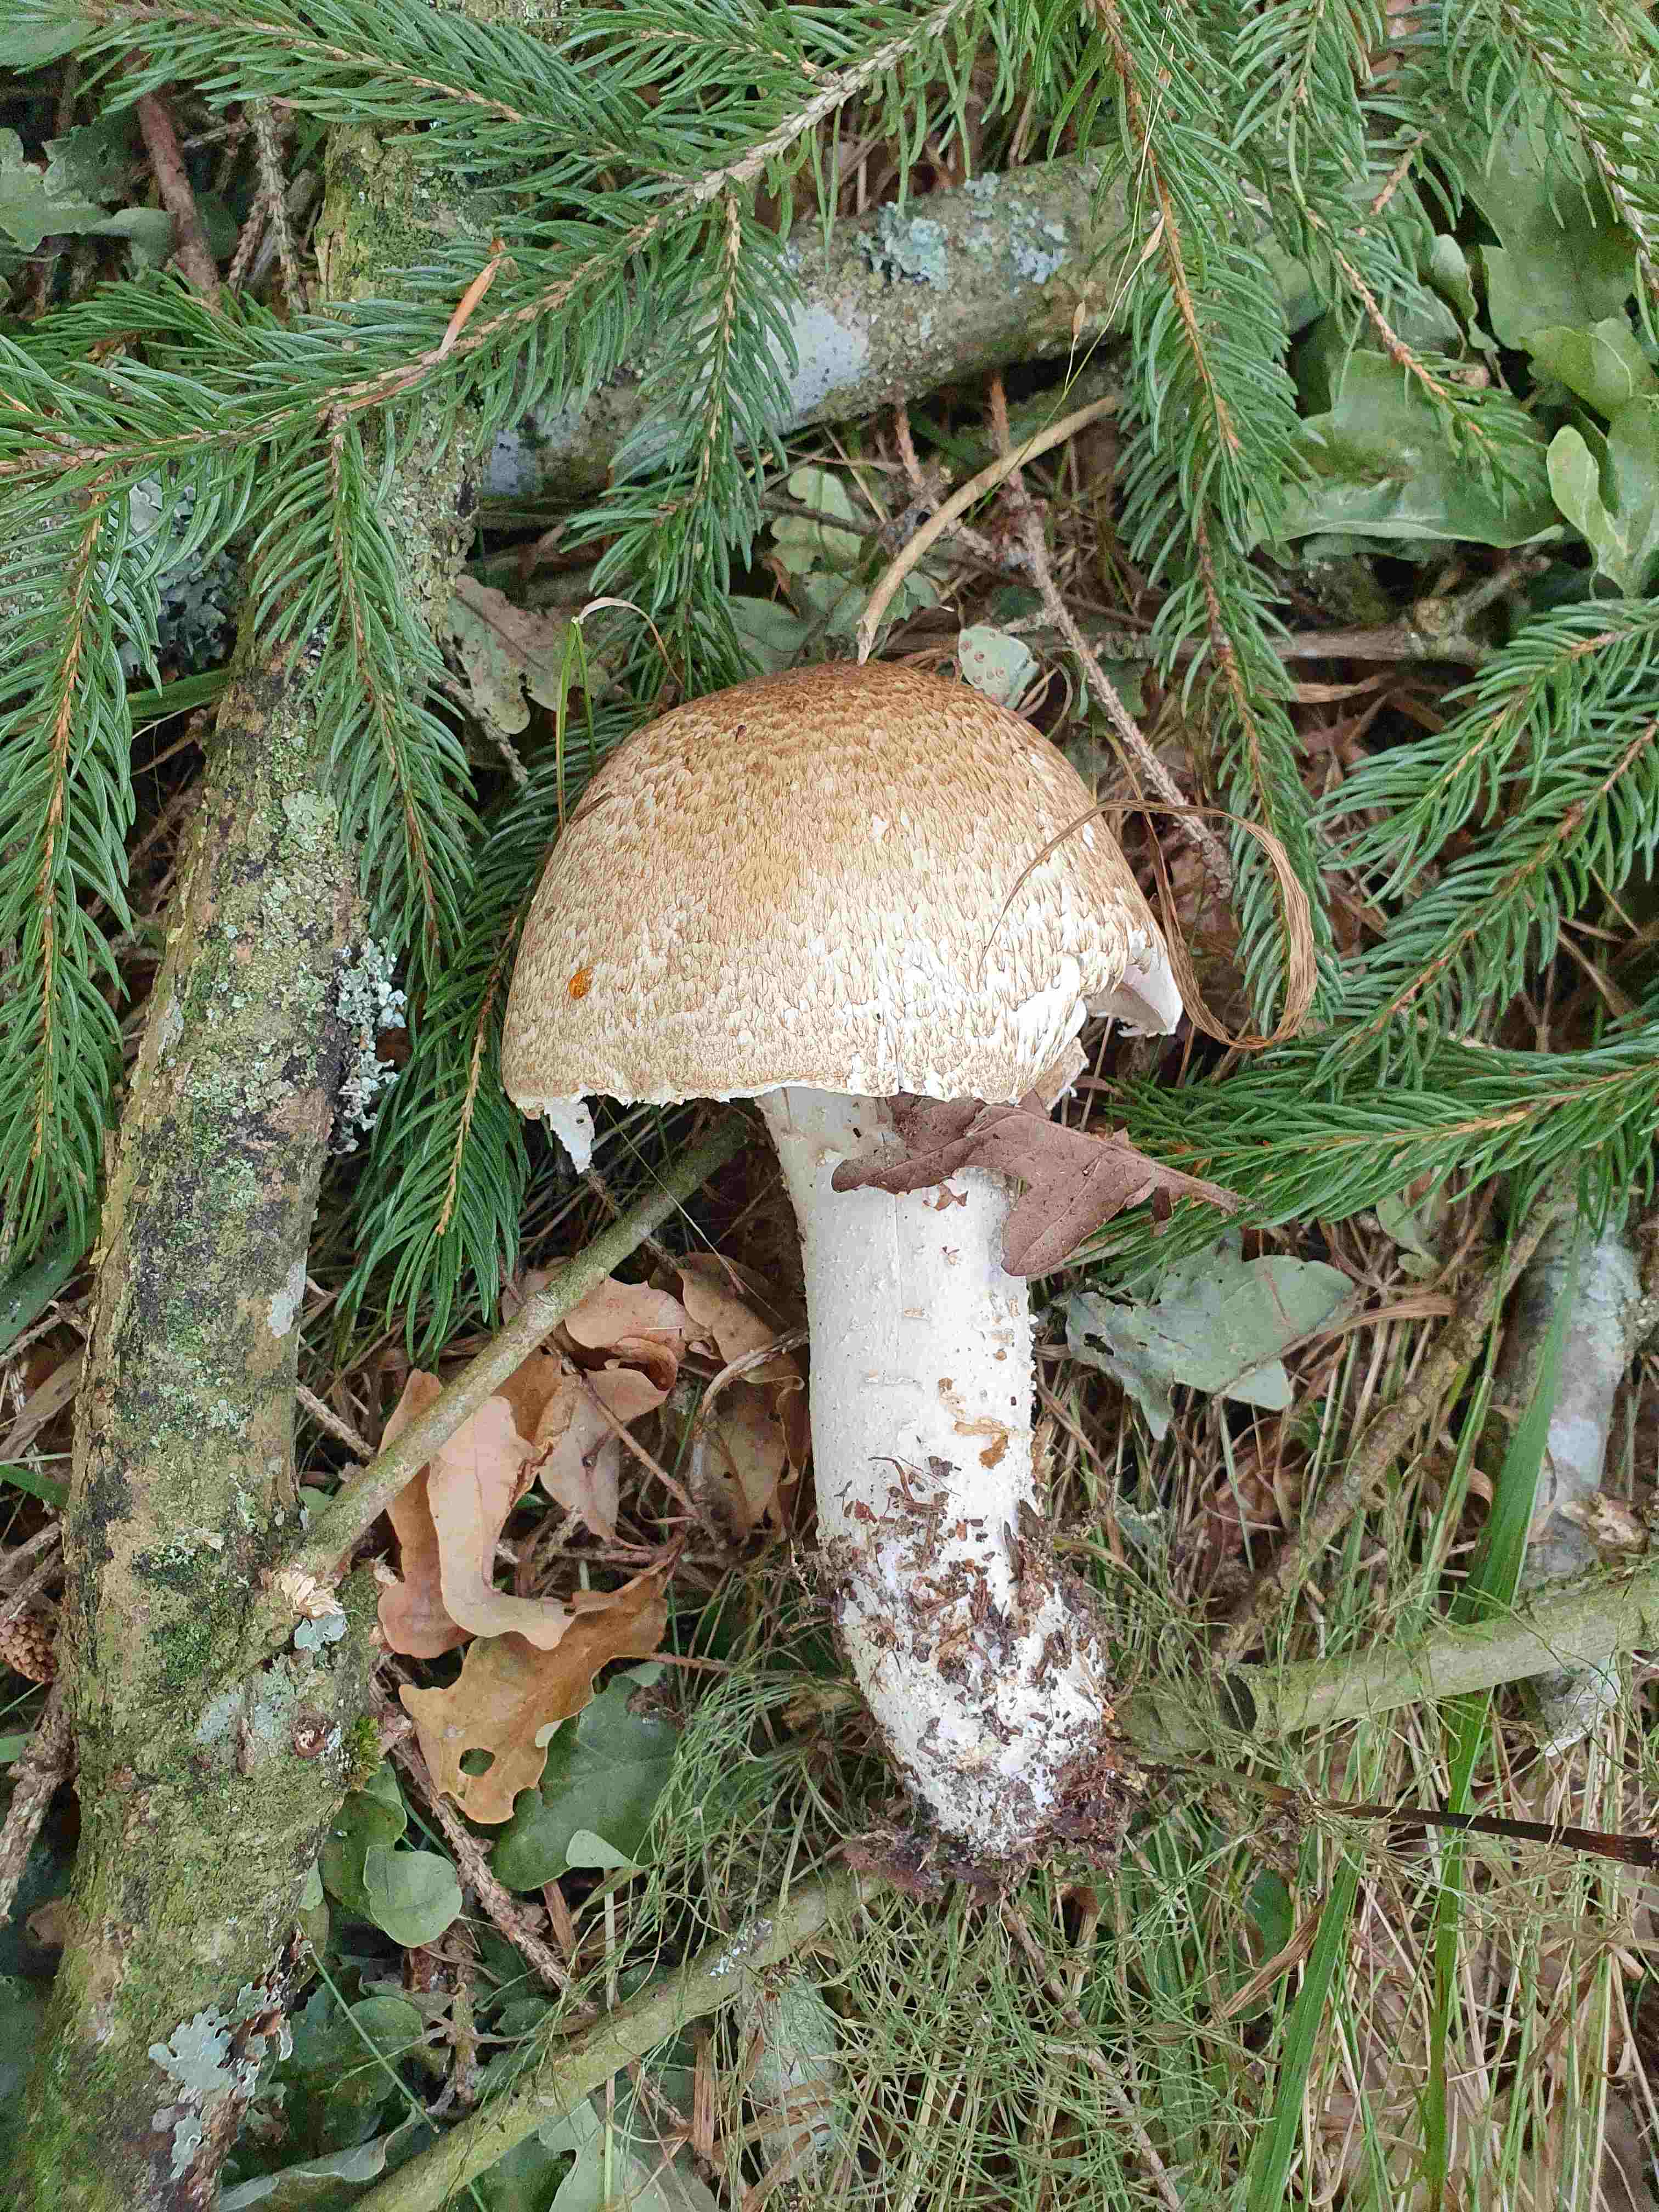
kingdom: Fungi
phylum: Basidiomycota
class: Agaricomycetes
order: Agaricales
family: Agaricaceae
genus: Agaricus
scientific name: Agaricus augustus
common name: prægtig champignon
